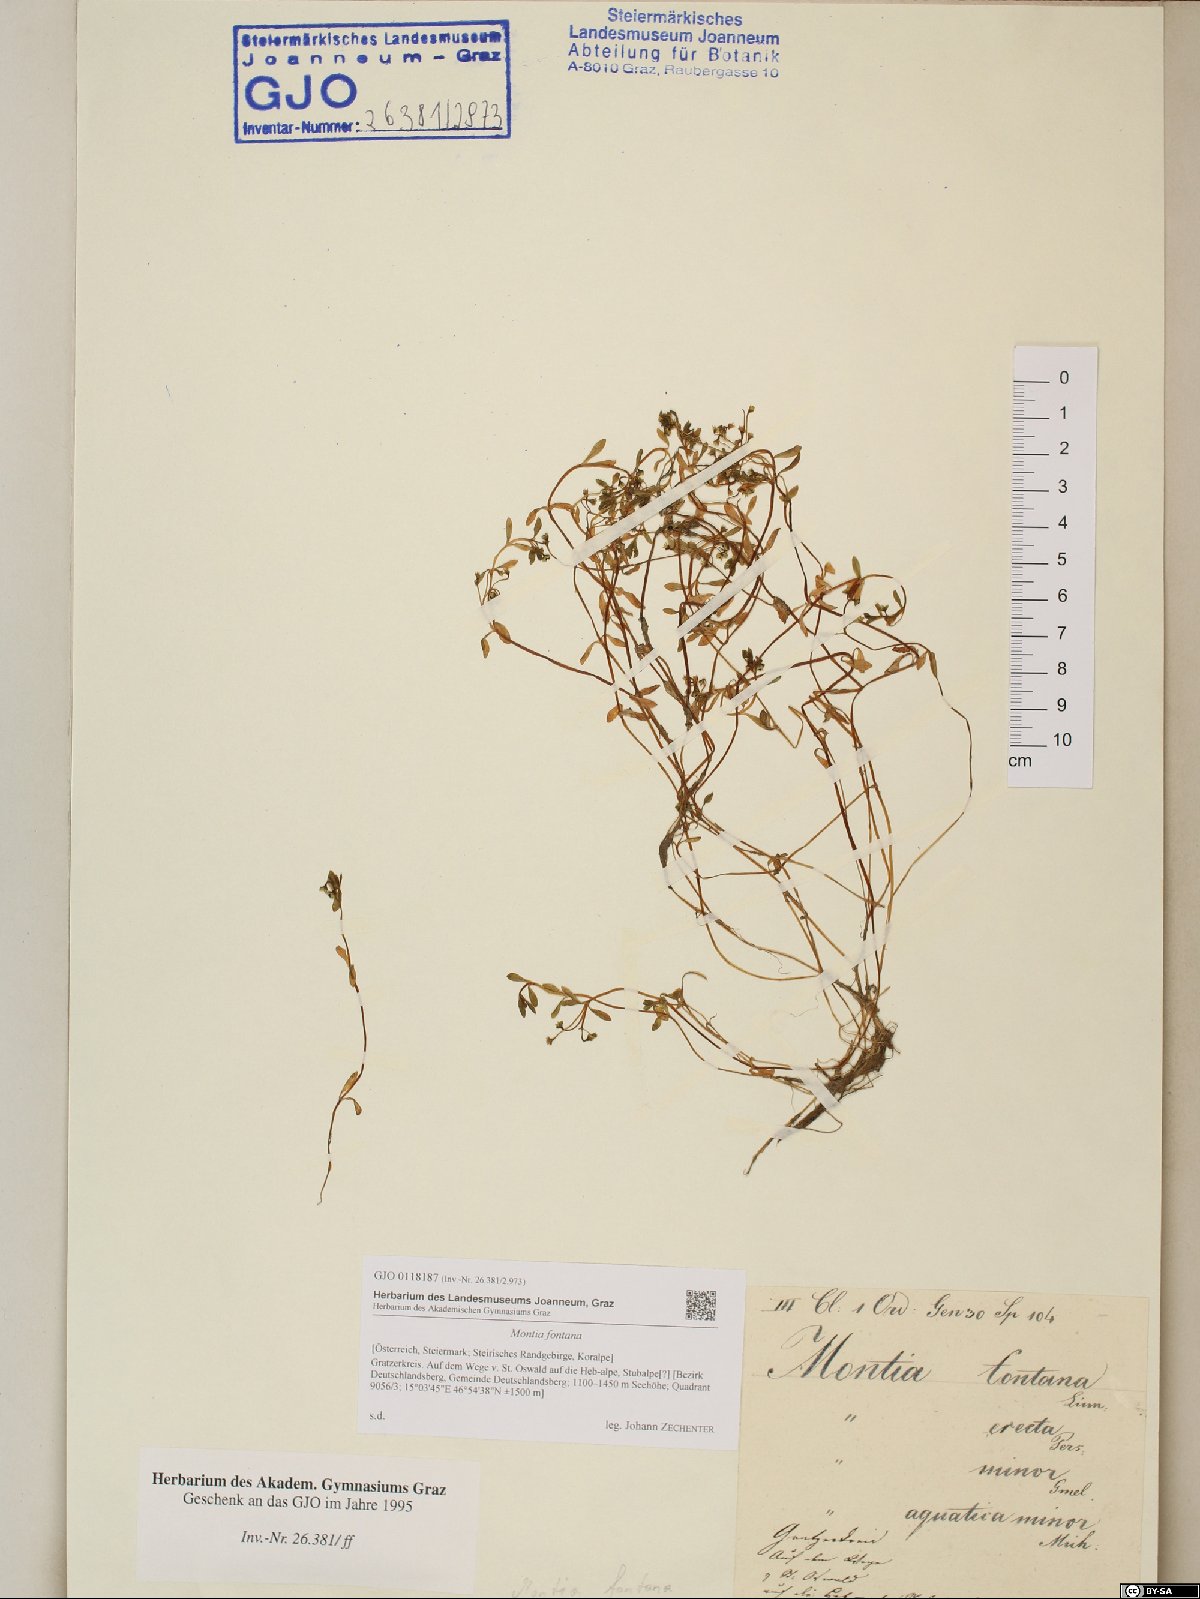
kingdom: Plantae
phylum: Tracheophyta
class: Magnoliopsida
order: Caryophyllales
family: Montiaceae
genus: Montia
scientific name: Montia fontana
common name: Blinks
